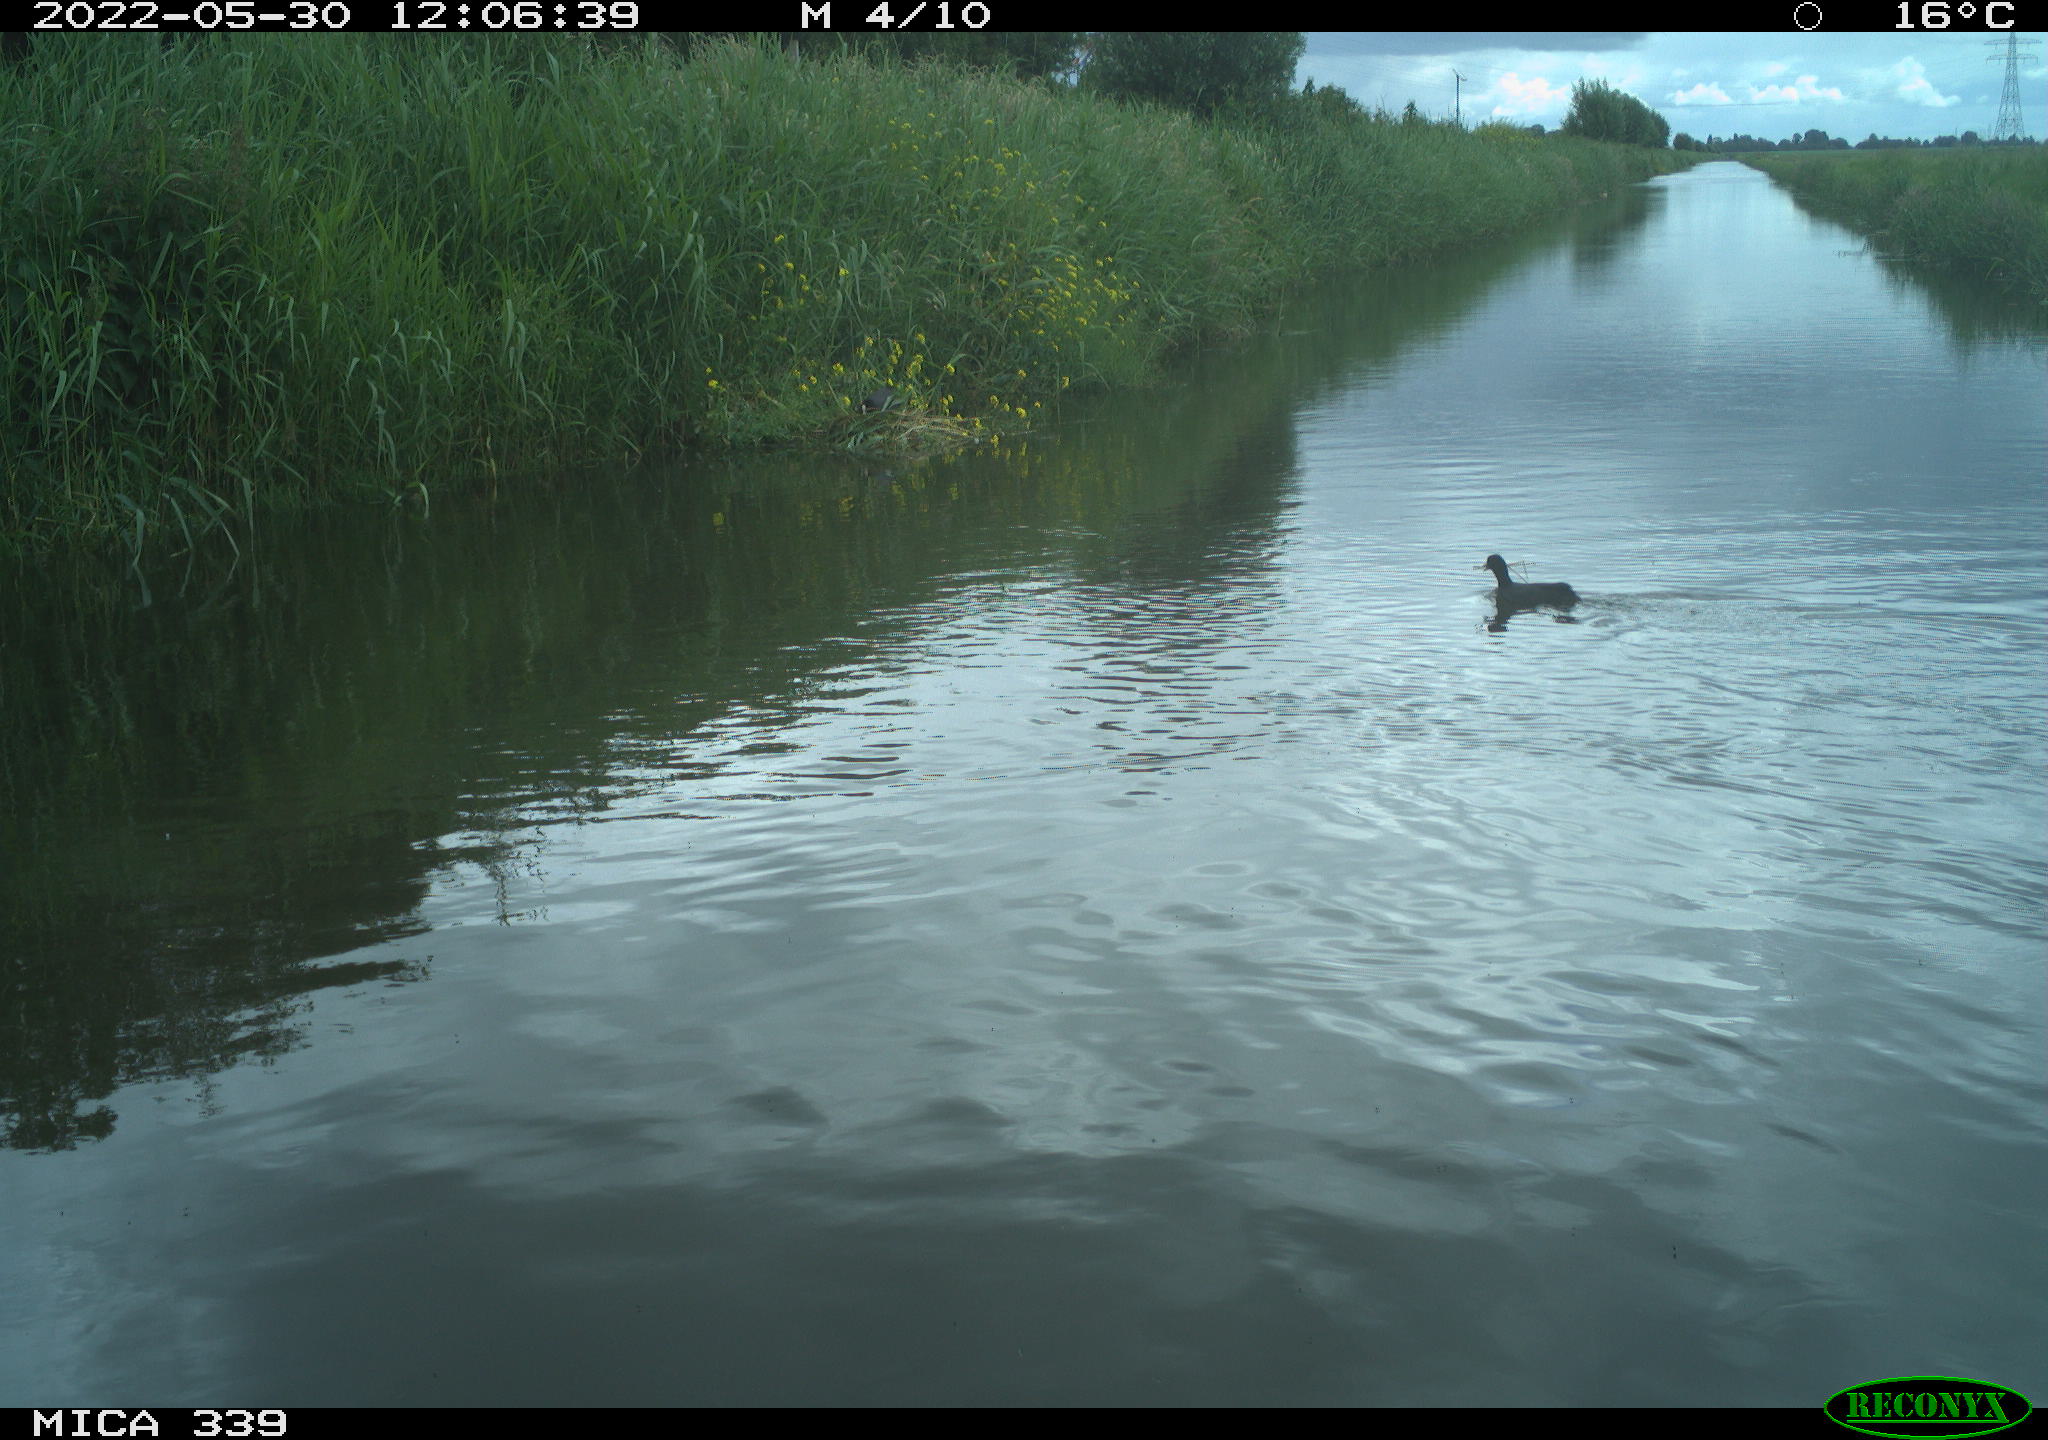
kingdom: Animalia
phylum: Chordata
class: Aves
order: Gruiformes
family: Rallidae
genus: Fulica
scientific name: Fulica atra
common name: Eurasian coot
